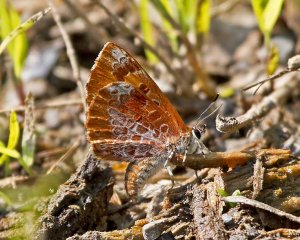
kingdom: Animalia
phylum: Arthropoda
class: Insecta
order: Lepidoptera
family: Lycaenidae
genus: Feniseca
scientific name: Feniseca tarquinius
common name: Harvester
